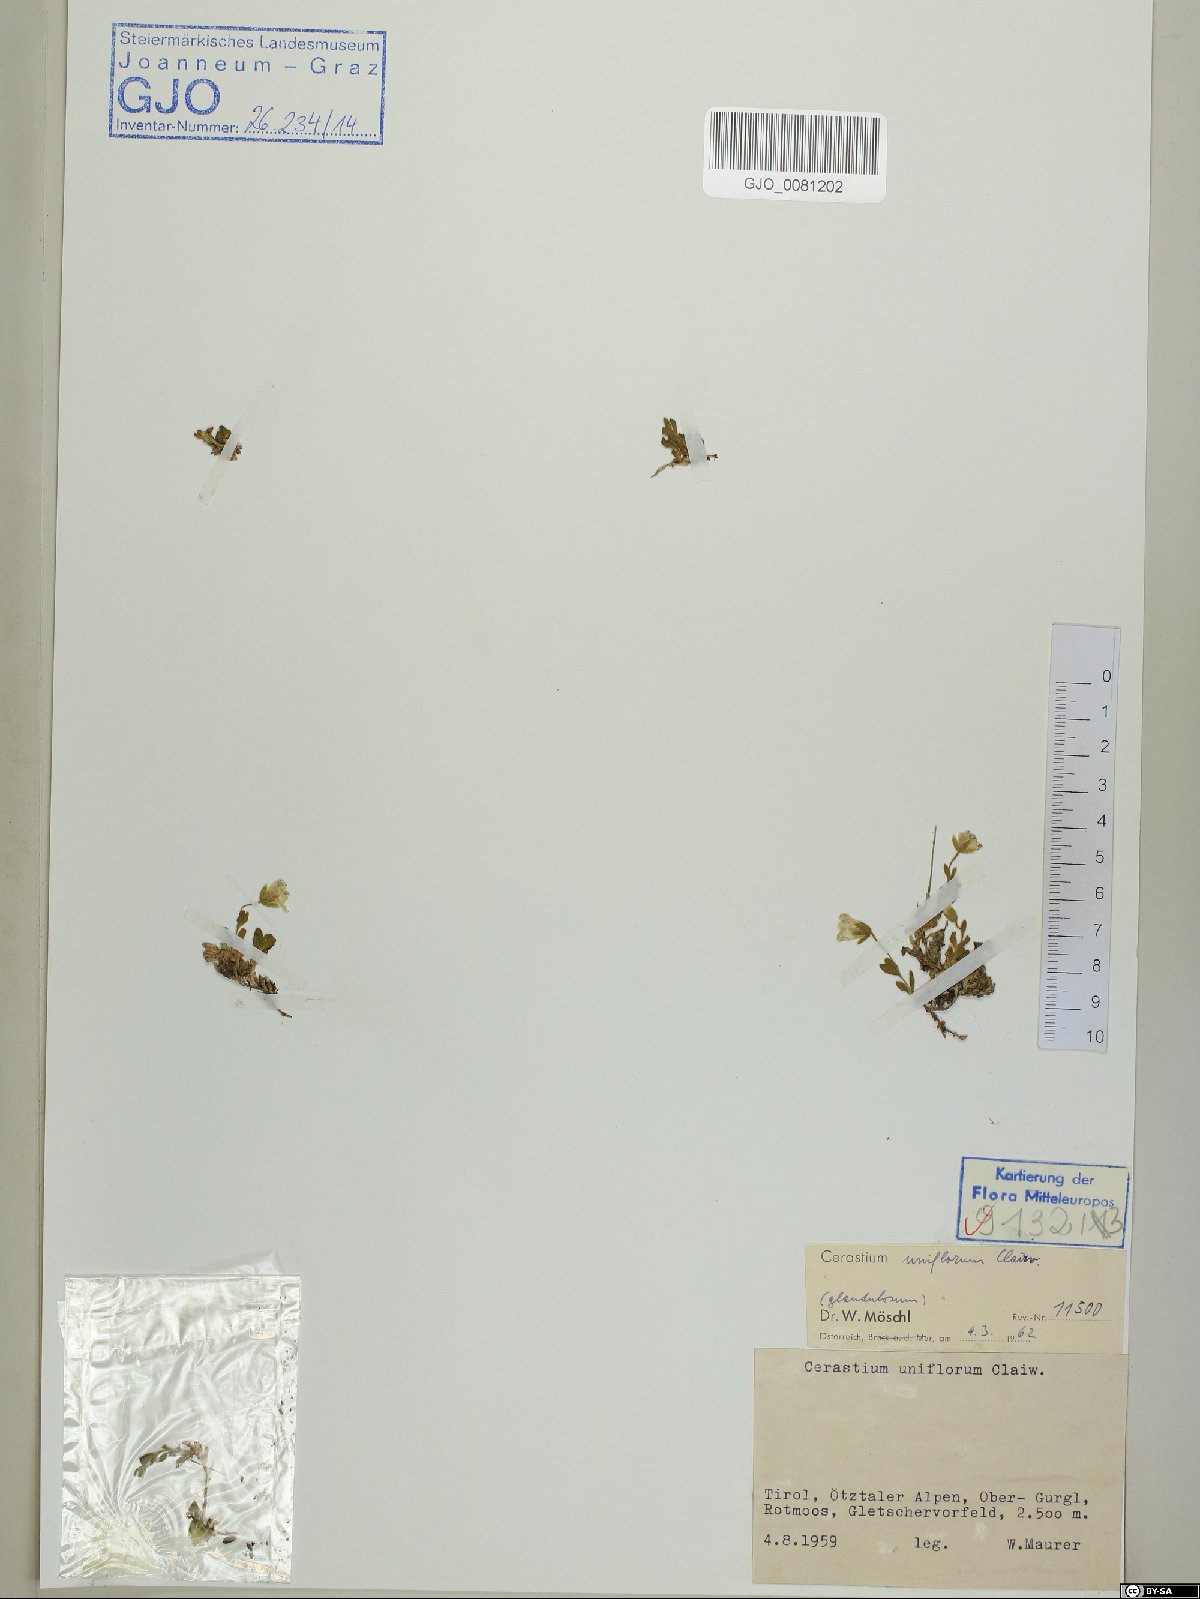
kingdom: Plantae
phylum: Tracheophyta
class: Magnoliopsida
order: Caryophyllales
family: Caryophyllaceae
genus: Cerastium
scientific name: Cerastium uniflorum
